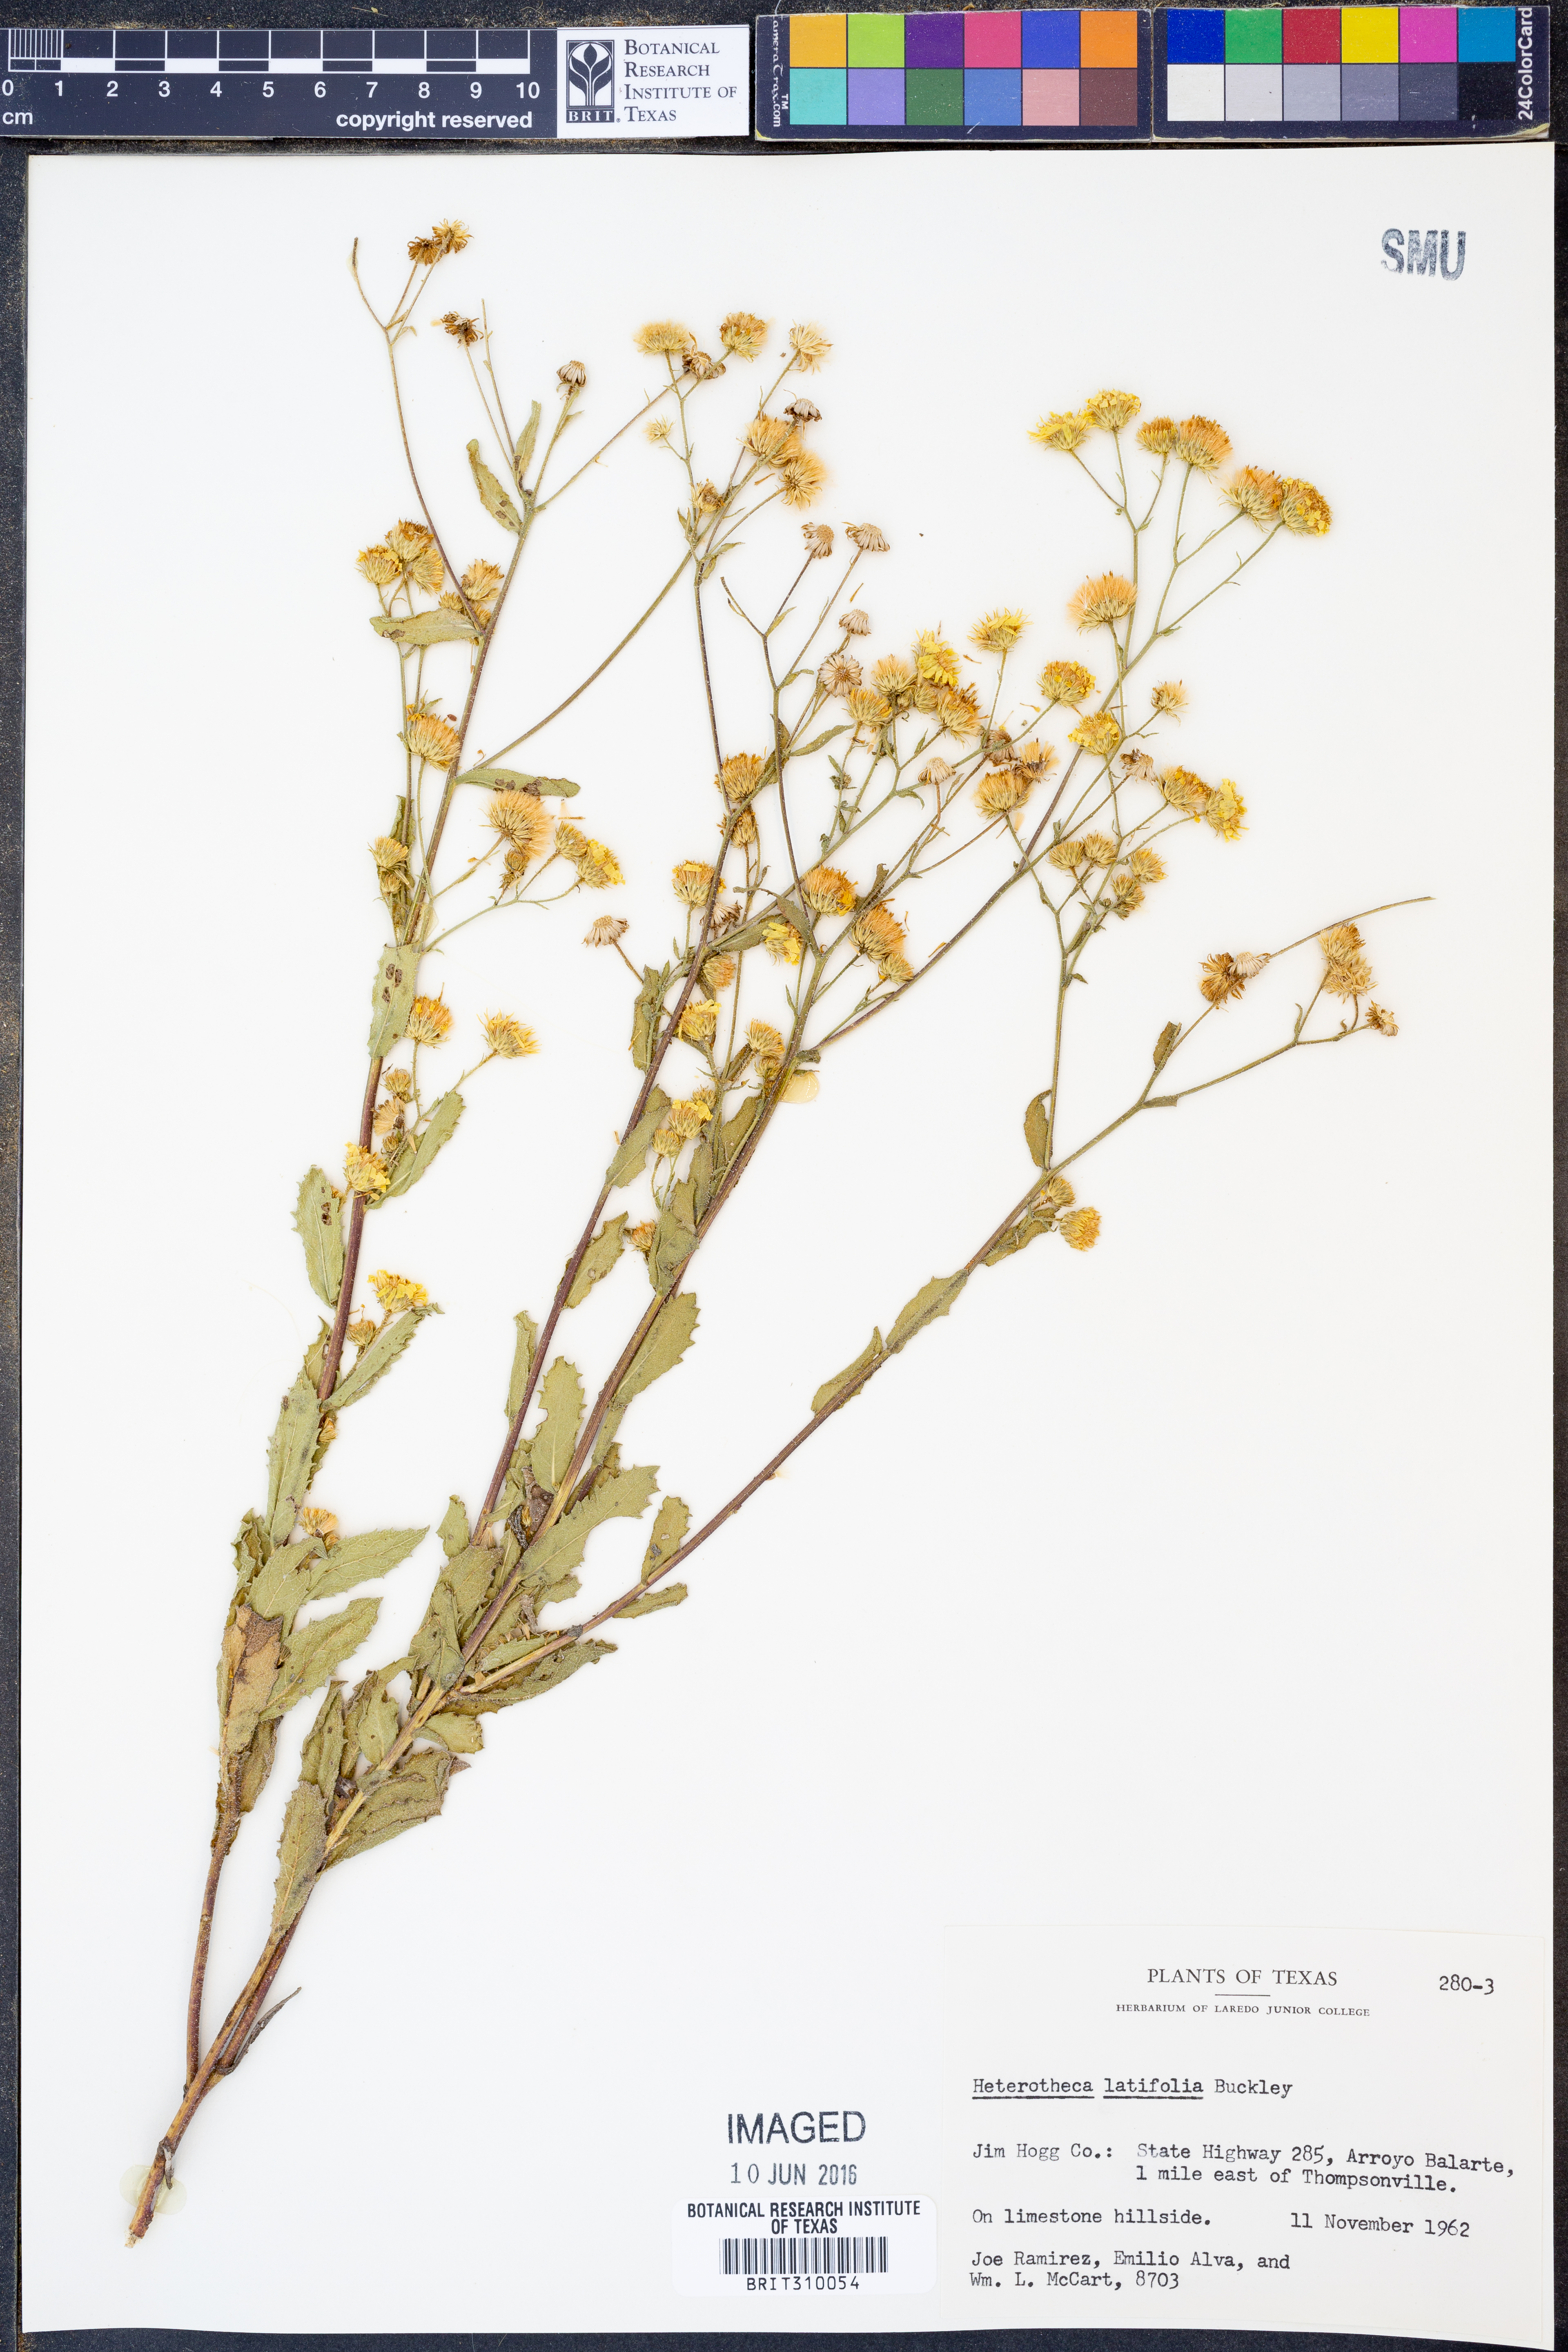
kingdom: Plantae
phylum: Tracheophyta
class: Magnoliopsida
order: Asterales
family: Asteraceae
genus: Heterotheca
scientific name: Heterotheca subaxillaris
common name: Camphorweed
